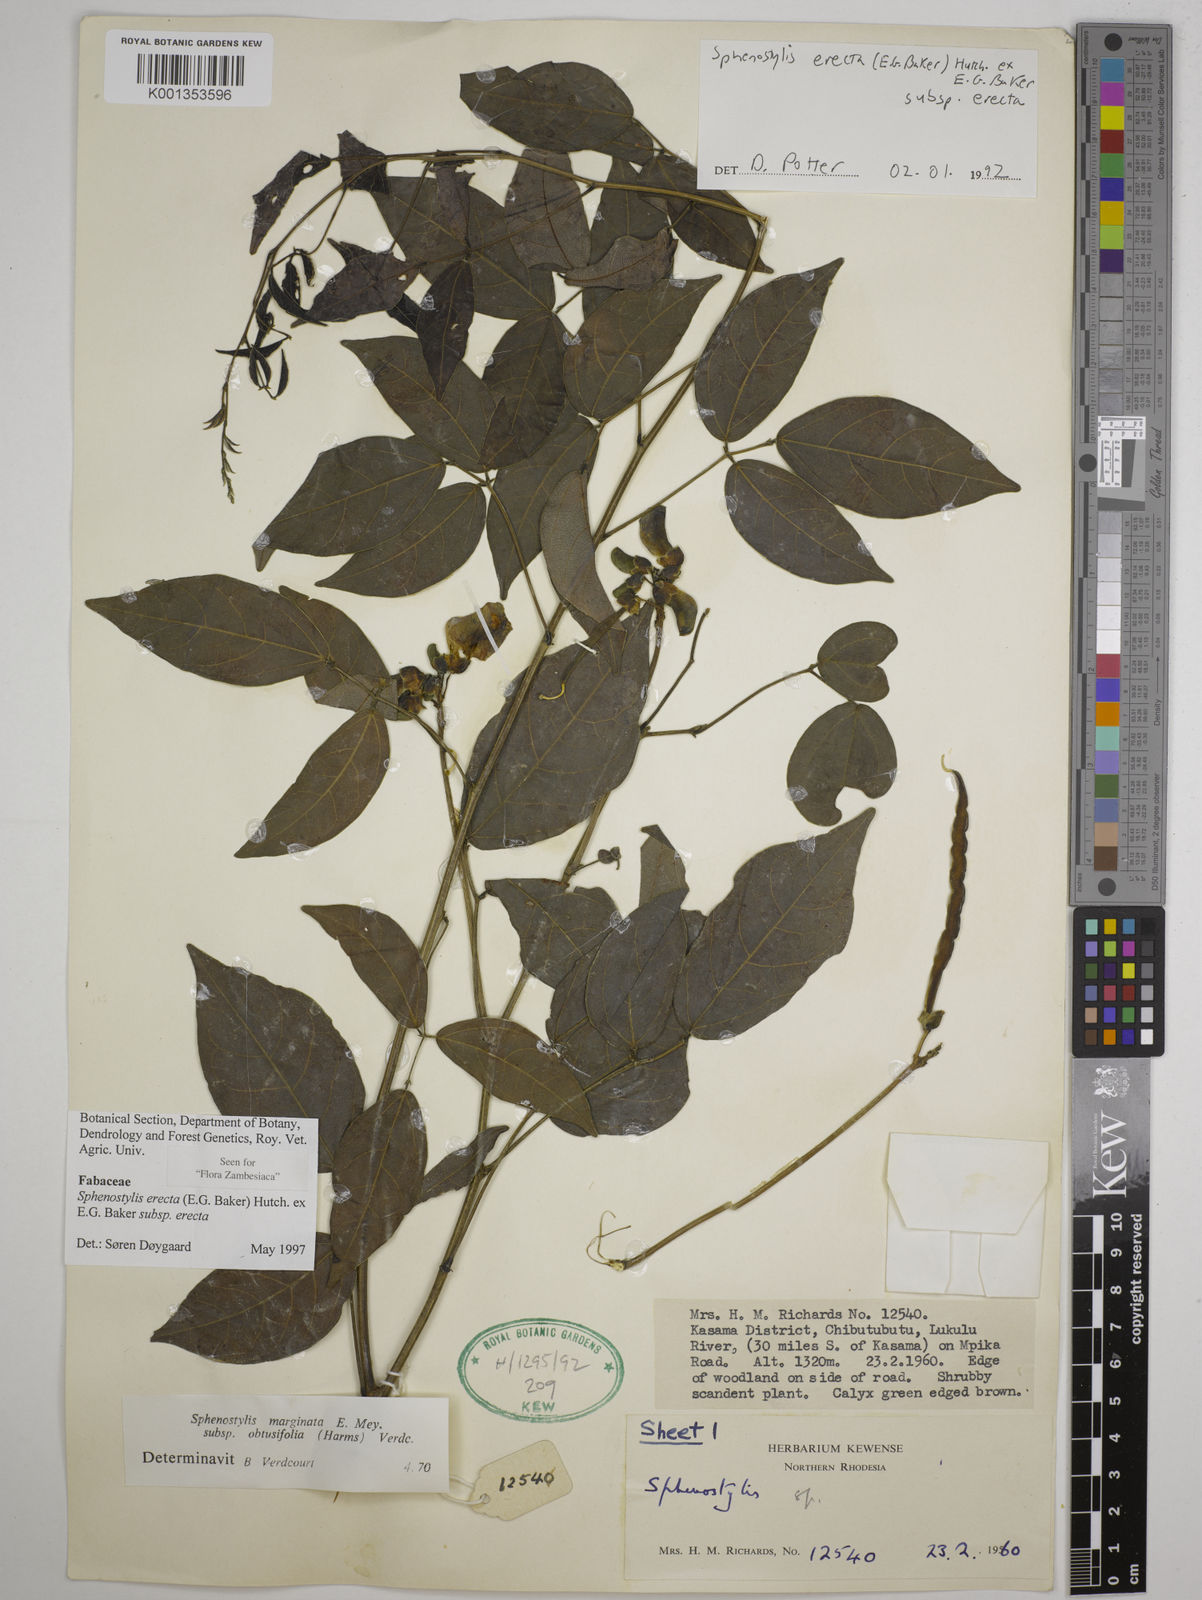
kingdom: Plantae
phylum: Tracheophyta
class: Magnoliopsida
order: Fabales
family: Fabaceae
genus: Sphenostylis
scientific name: Sphenostylis erecta
